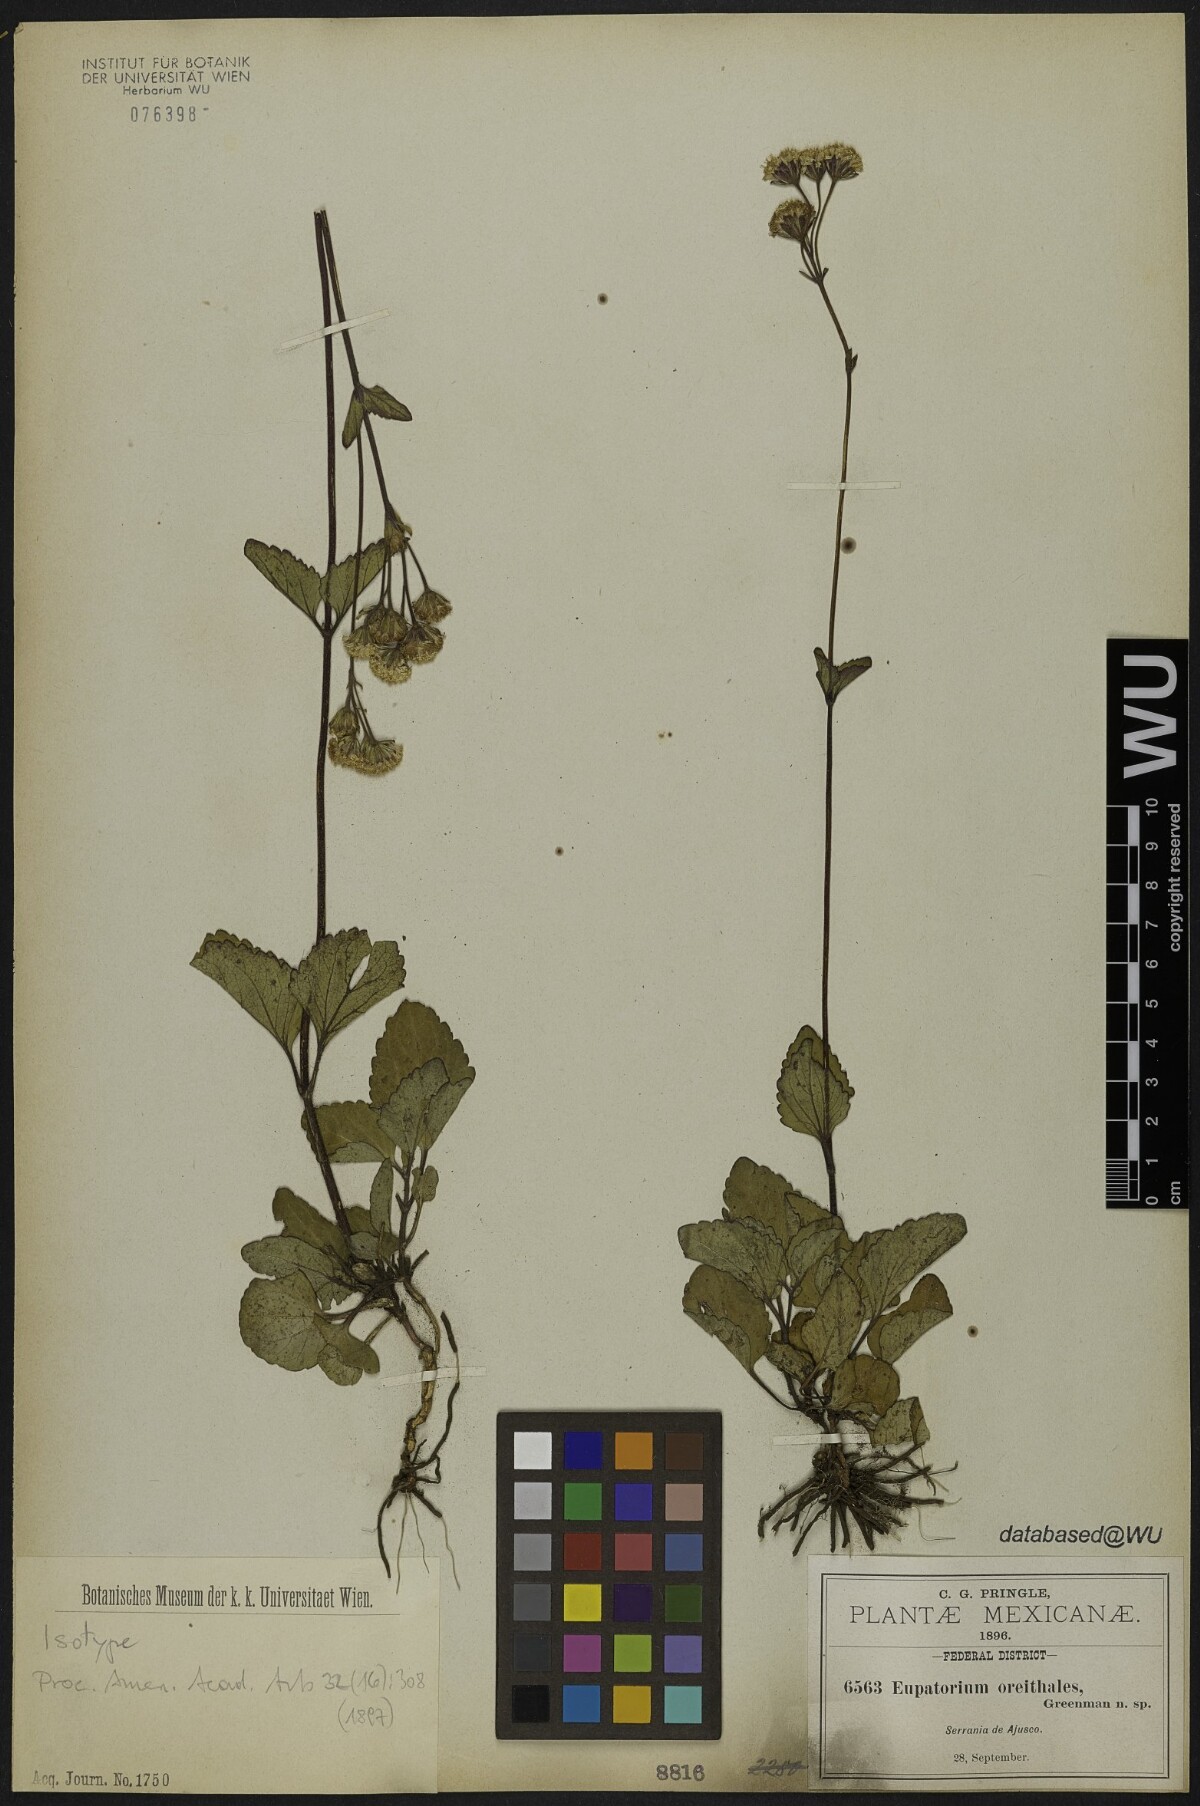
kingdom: Plantae
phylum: Tracheophyta
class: Magnoliopsida
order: Asterales
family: Asteraceae
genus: Ageratina
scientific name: Ageratina oreithales
